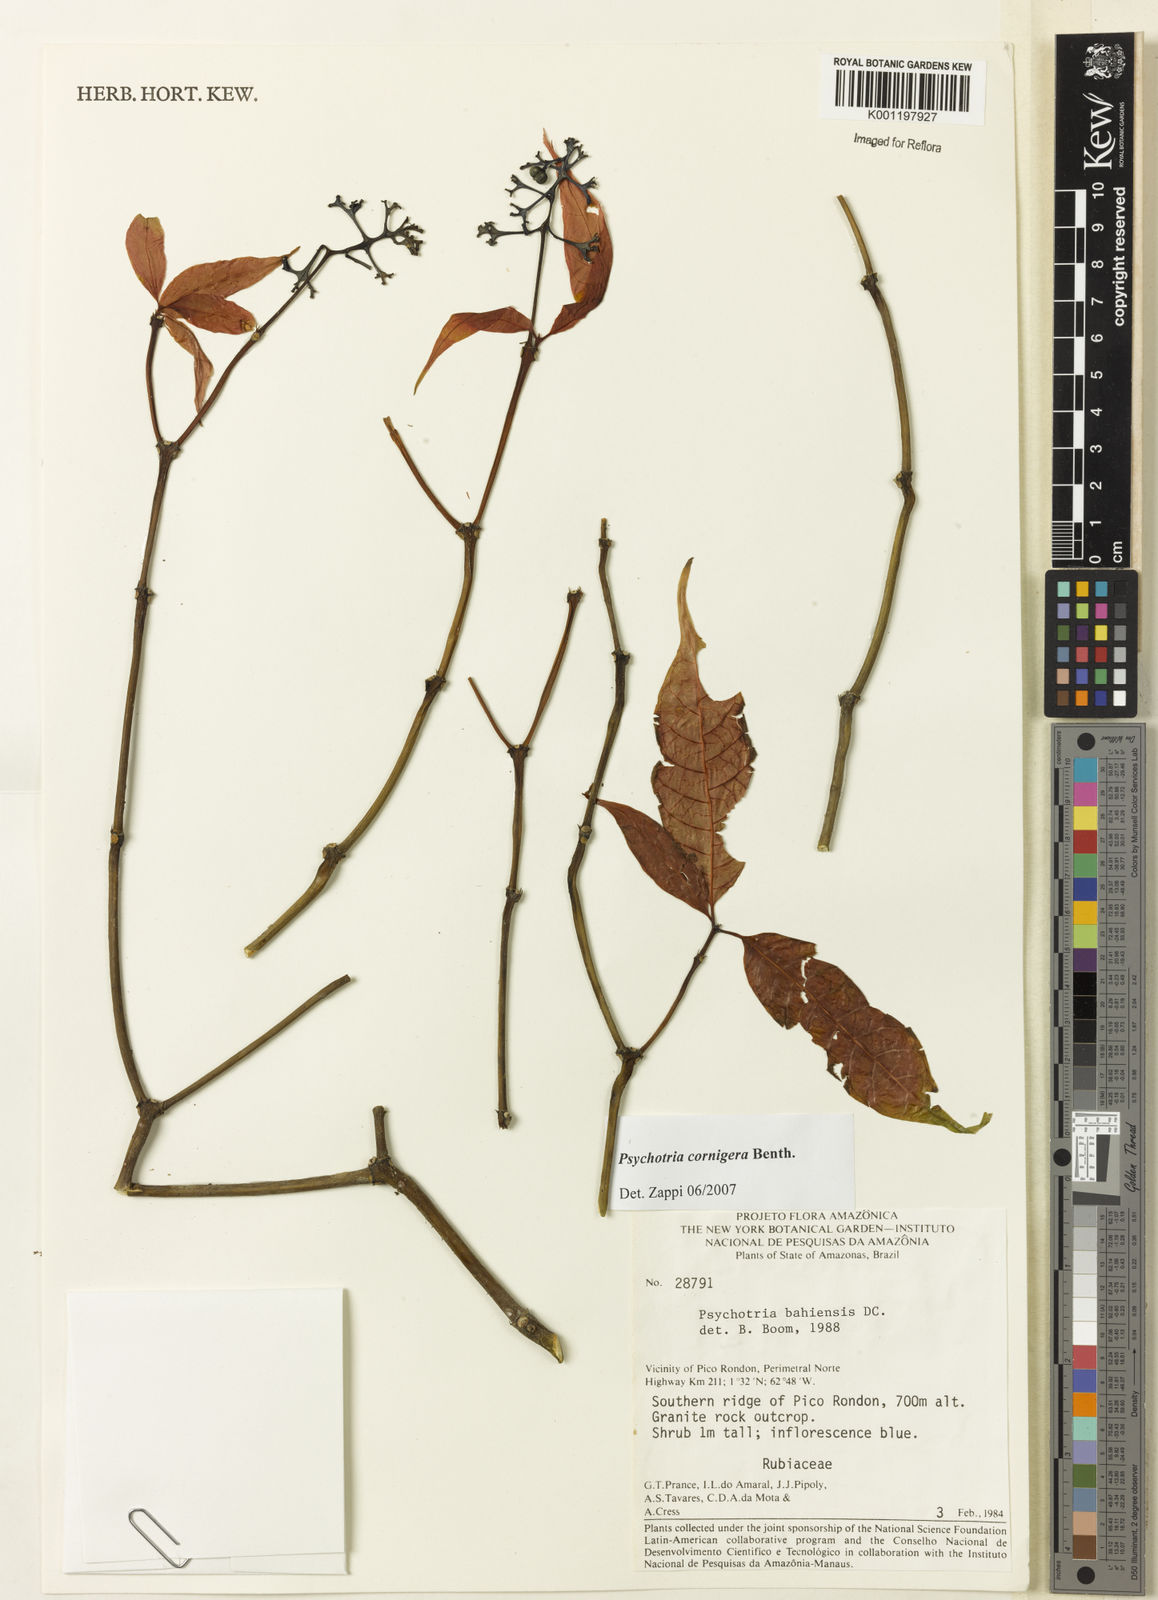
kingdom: Plantae
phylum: Tracheophyta
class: Magnoliopsida
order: Gentianales
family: Rubiaceae
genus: Psychotria
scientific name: Psychotria bahiensis
